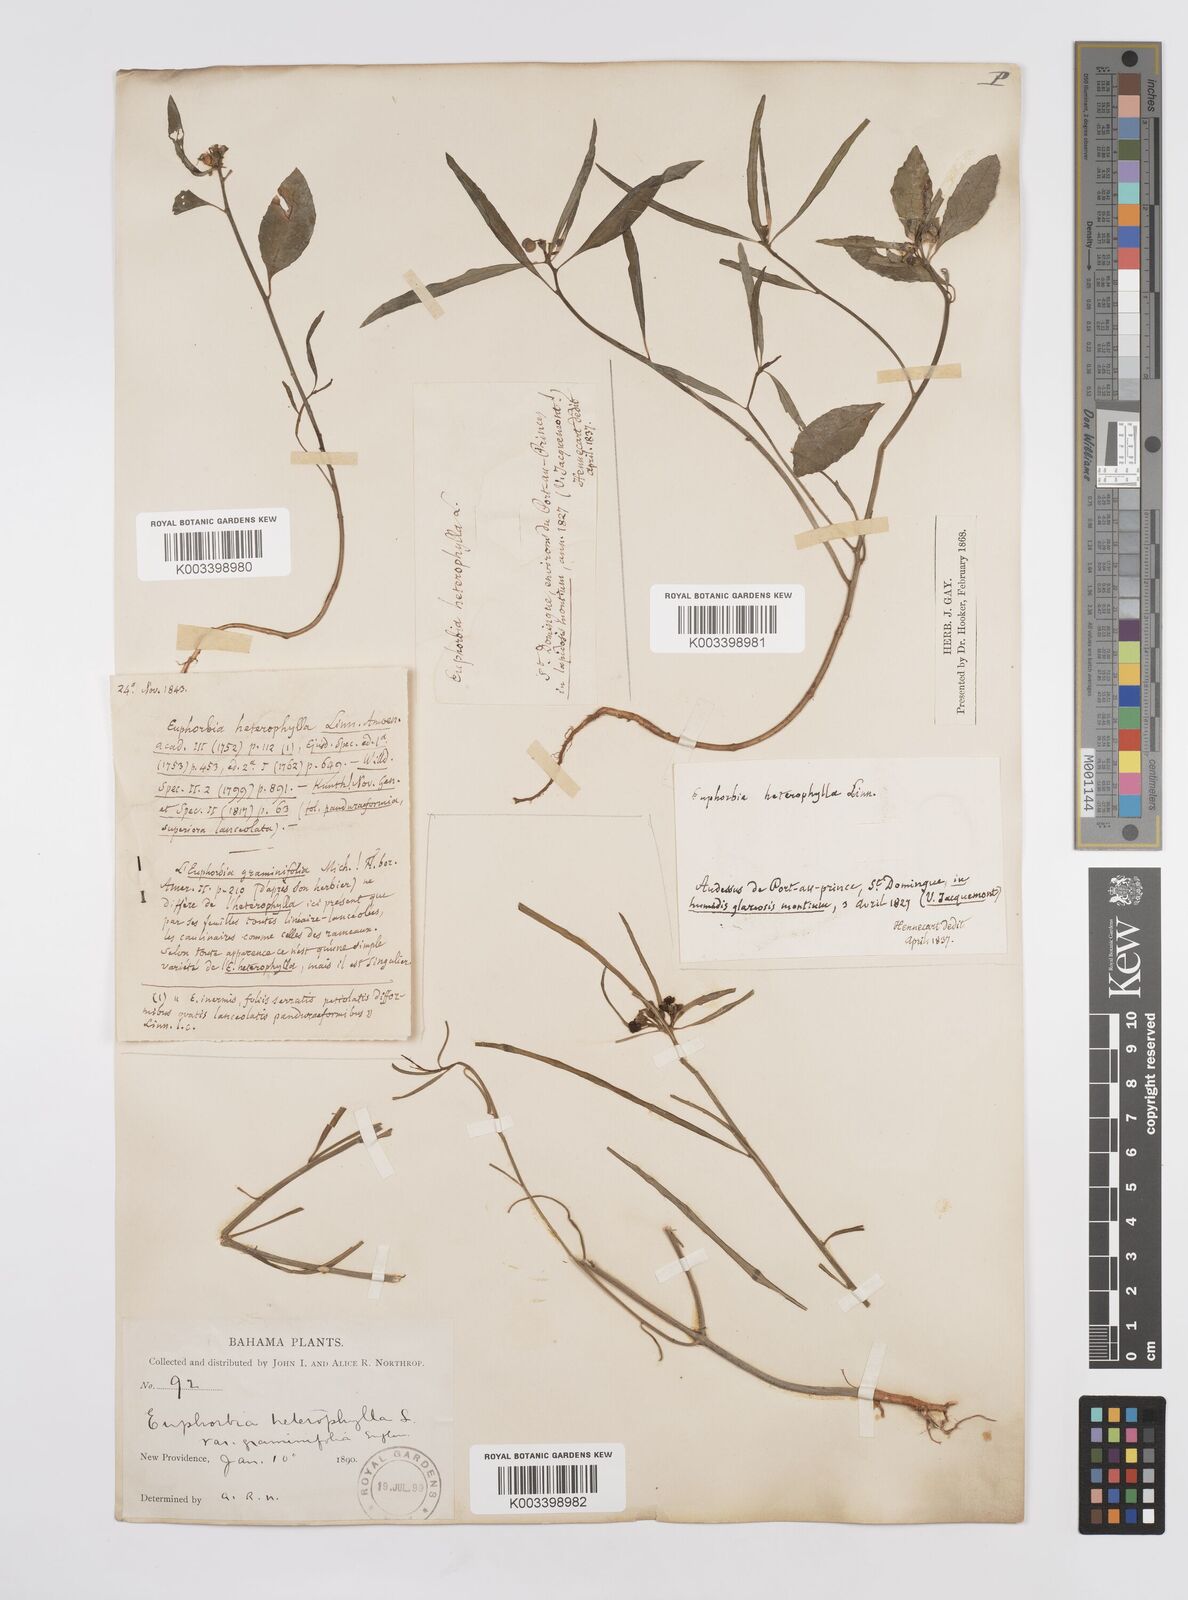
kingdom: Plantae
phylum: Tracheophyta
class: Magnoliopsida
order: Malpighiales
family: Euphorbiaceae
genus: Euphorbia
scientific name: Euphorbia heterophylla
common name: Mexican fireplant
